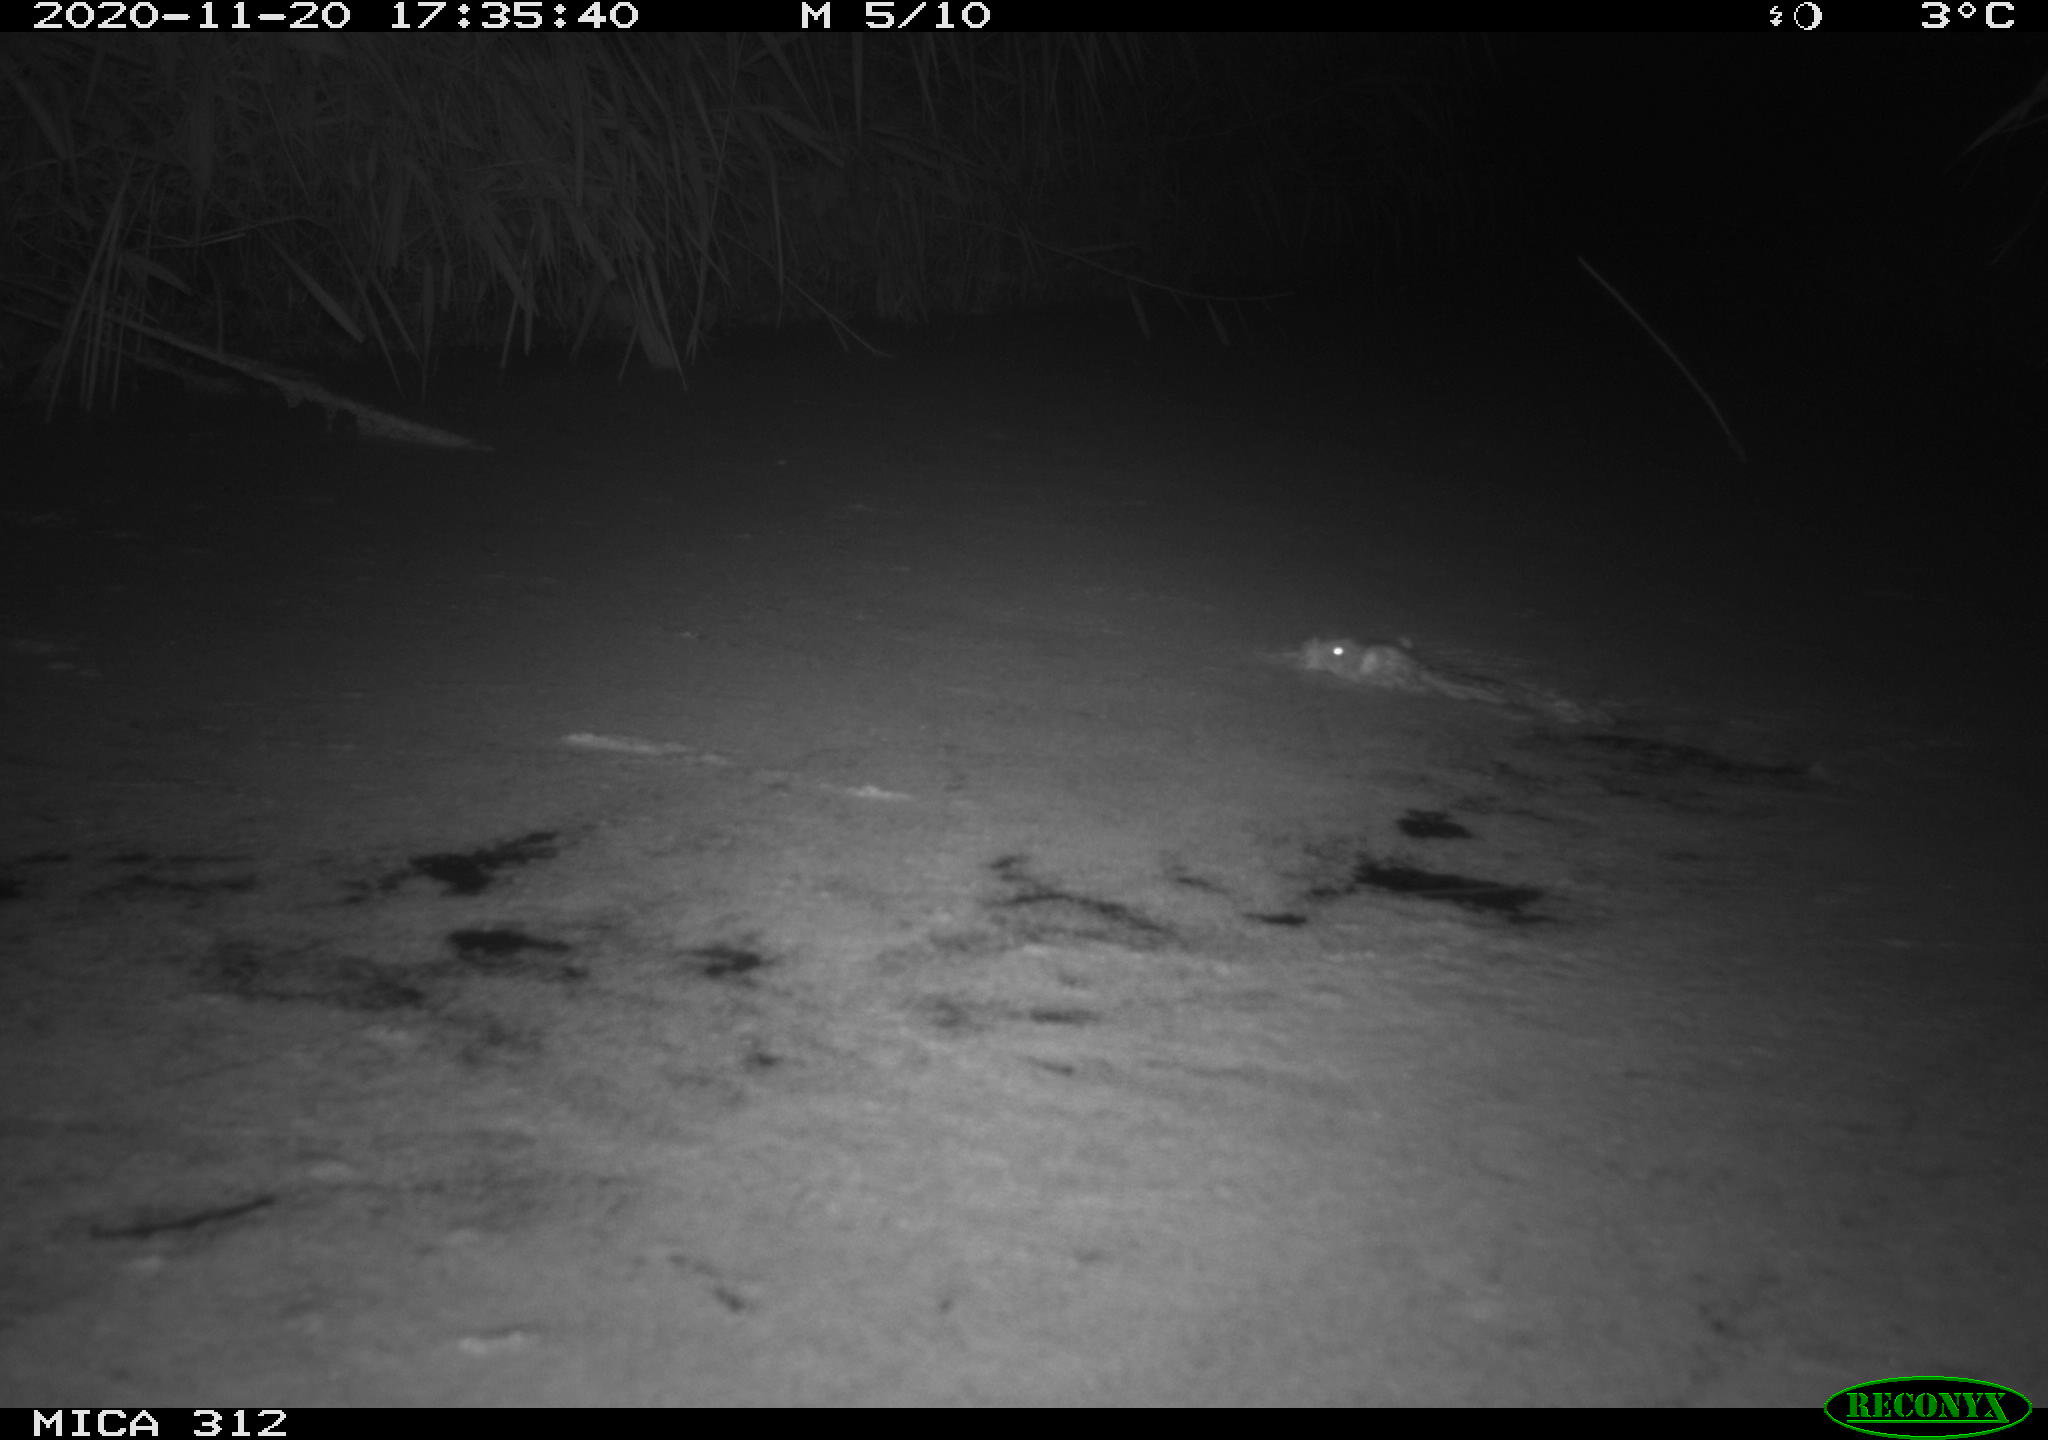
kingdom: Animalia
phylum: Chordata
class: Mammalia
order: Rodentia
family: Muridae
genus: Rattus
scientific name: Rattus norvegicus
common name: Brown rat
